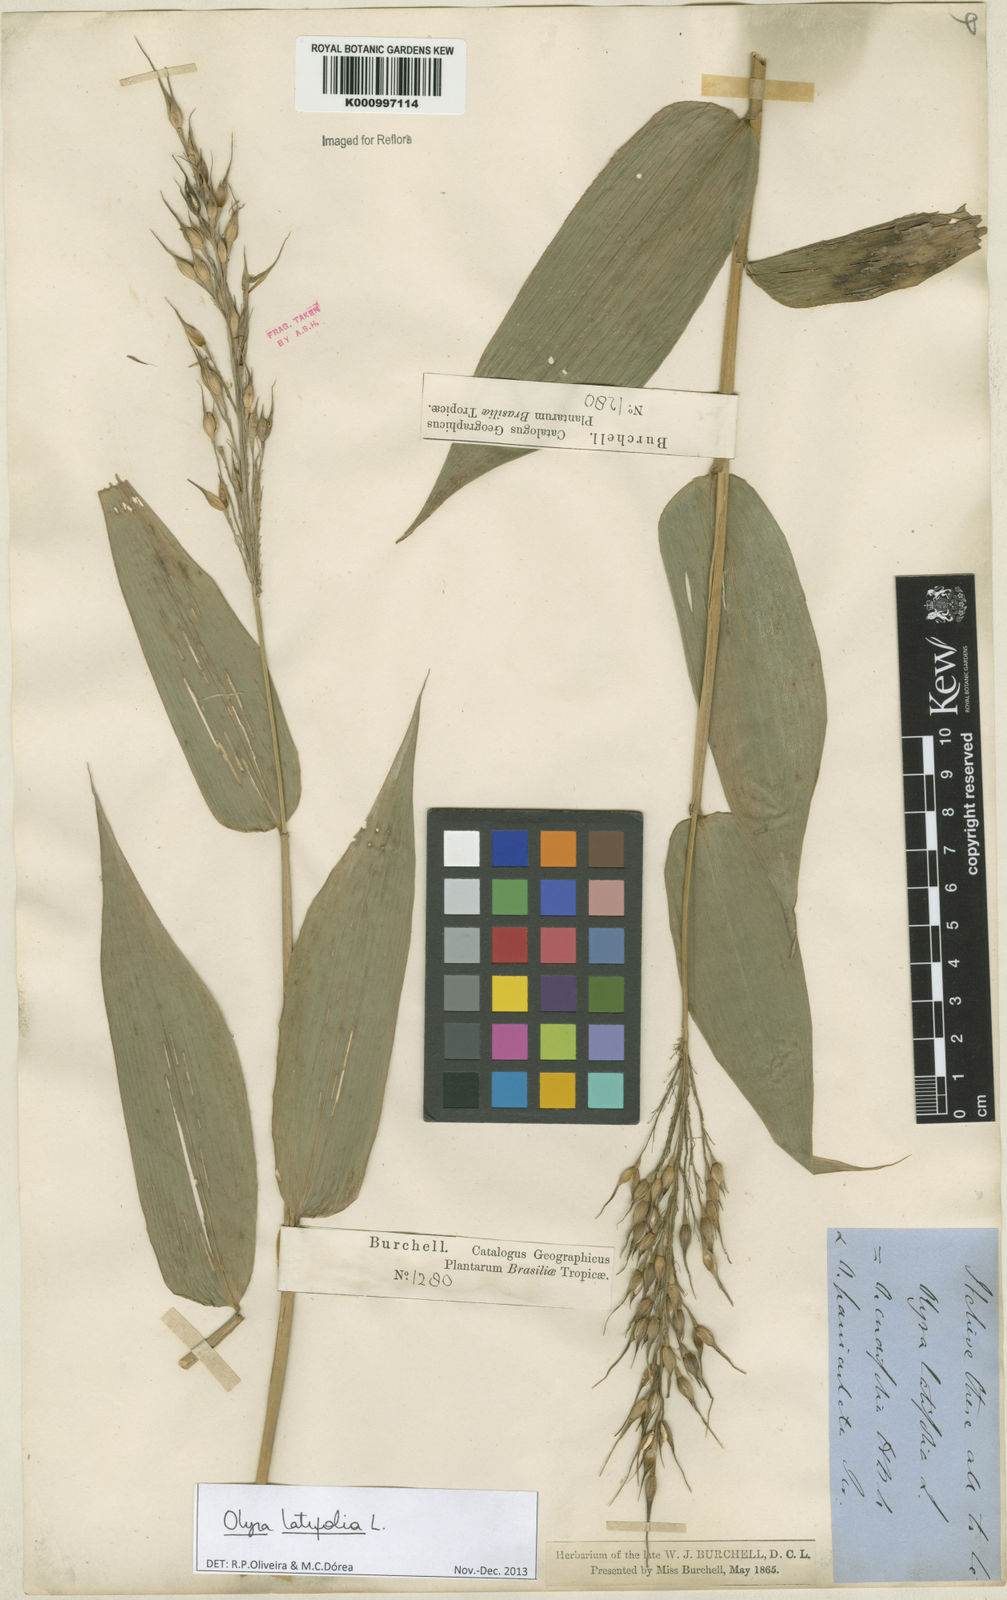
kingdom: Plantae
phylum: Tracheophyta
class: Liliopsida
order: Poales
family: Poaceae
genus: Olyra
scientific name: Olyra latifolia
